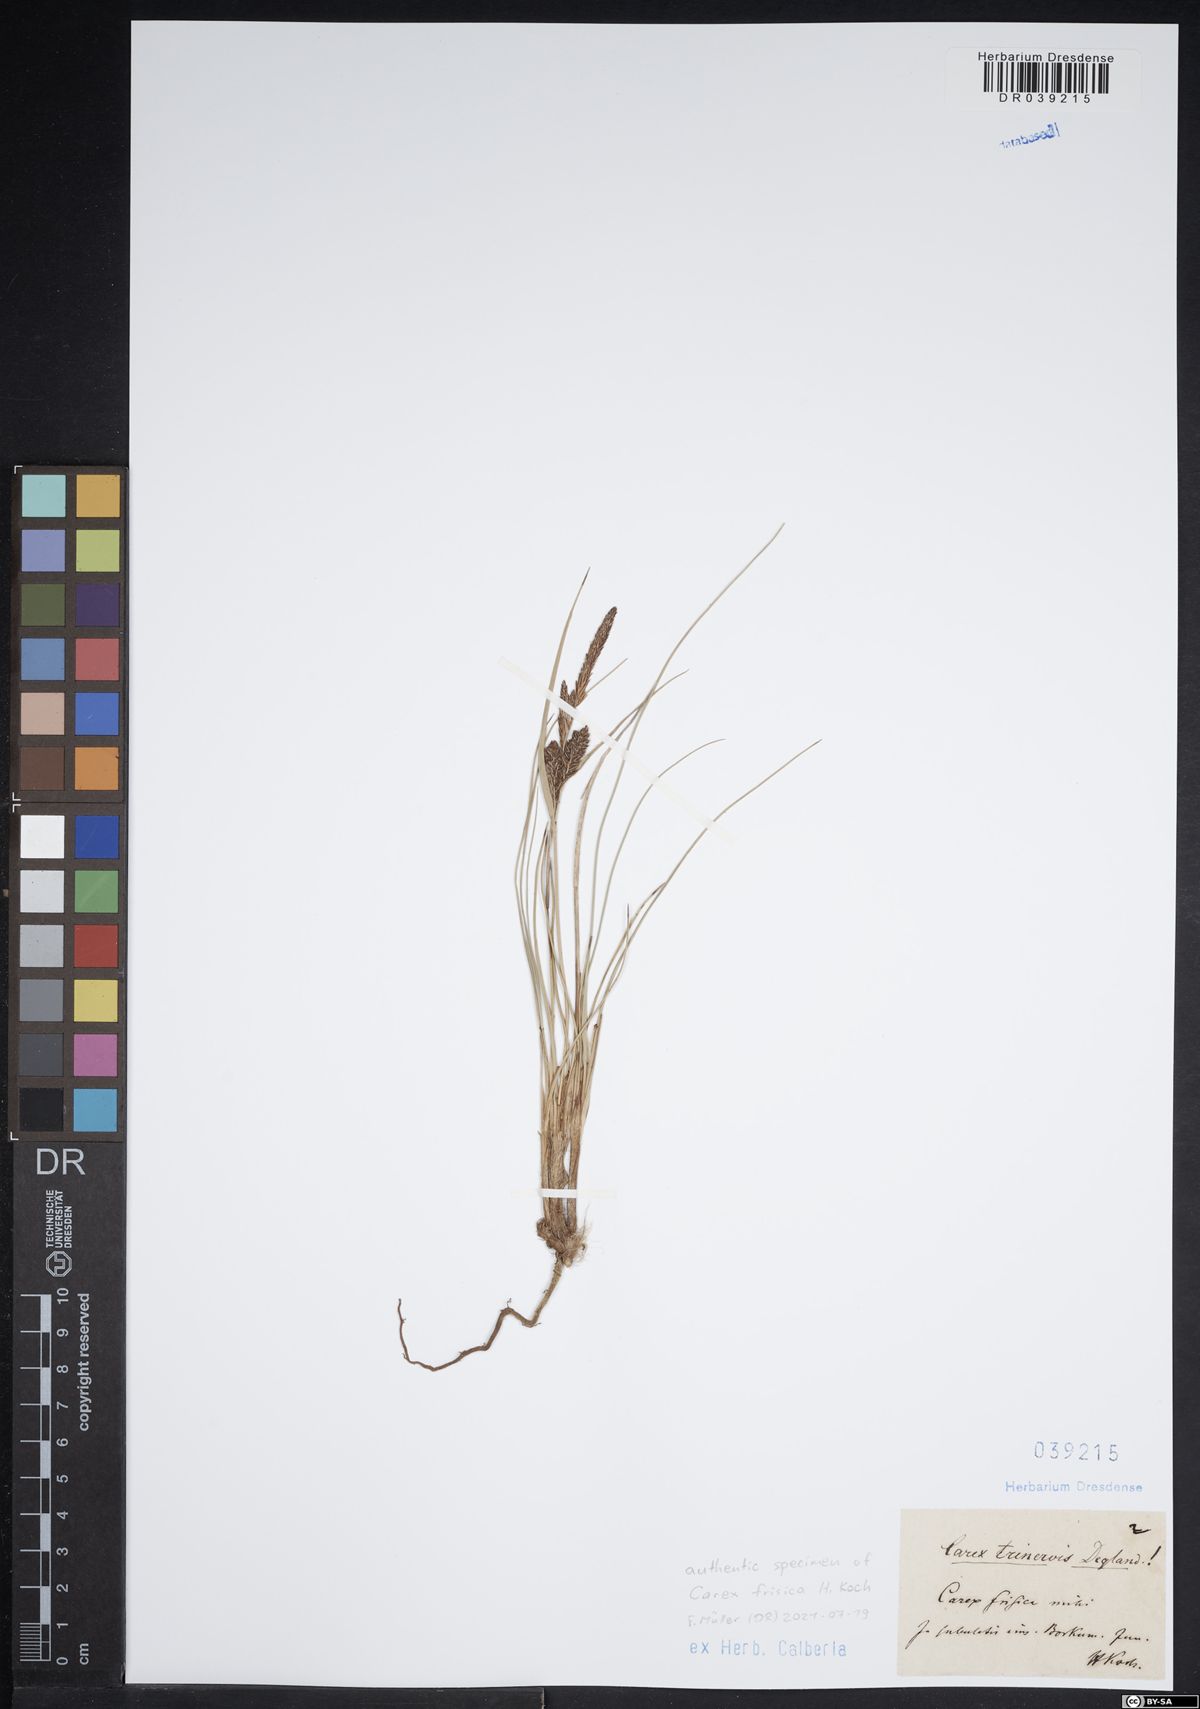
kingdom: Plantae
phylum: Tracheophyta
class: Liliopsida
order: Poales
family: Cyperaceae
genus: Carex
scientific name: Carex trinervis
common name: Three-nerved sedge
